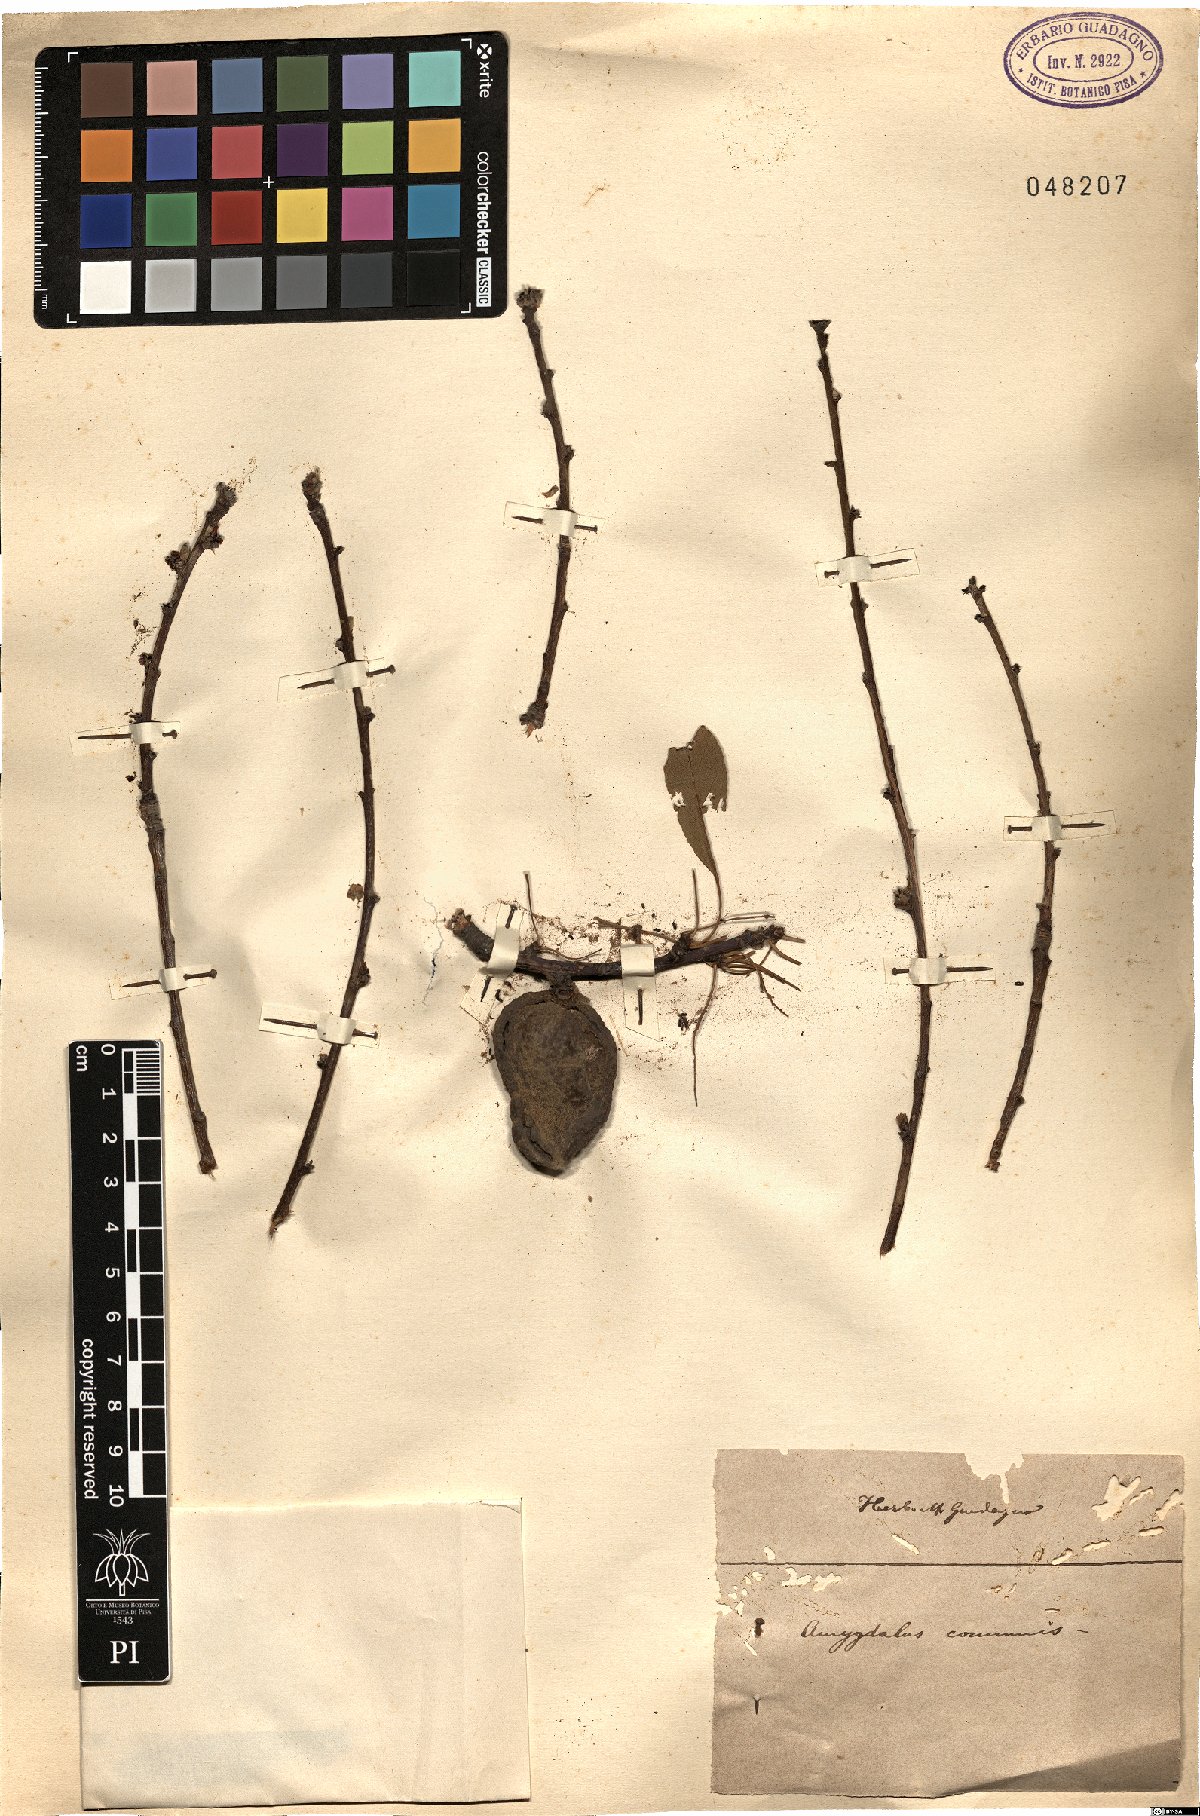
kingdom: Plantae
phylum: Tracheophyta
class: Magnoliopsida
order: Rosales
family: Rosaceae
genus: Prunus
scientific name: Prunus amygdalus
